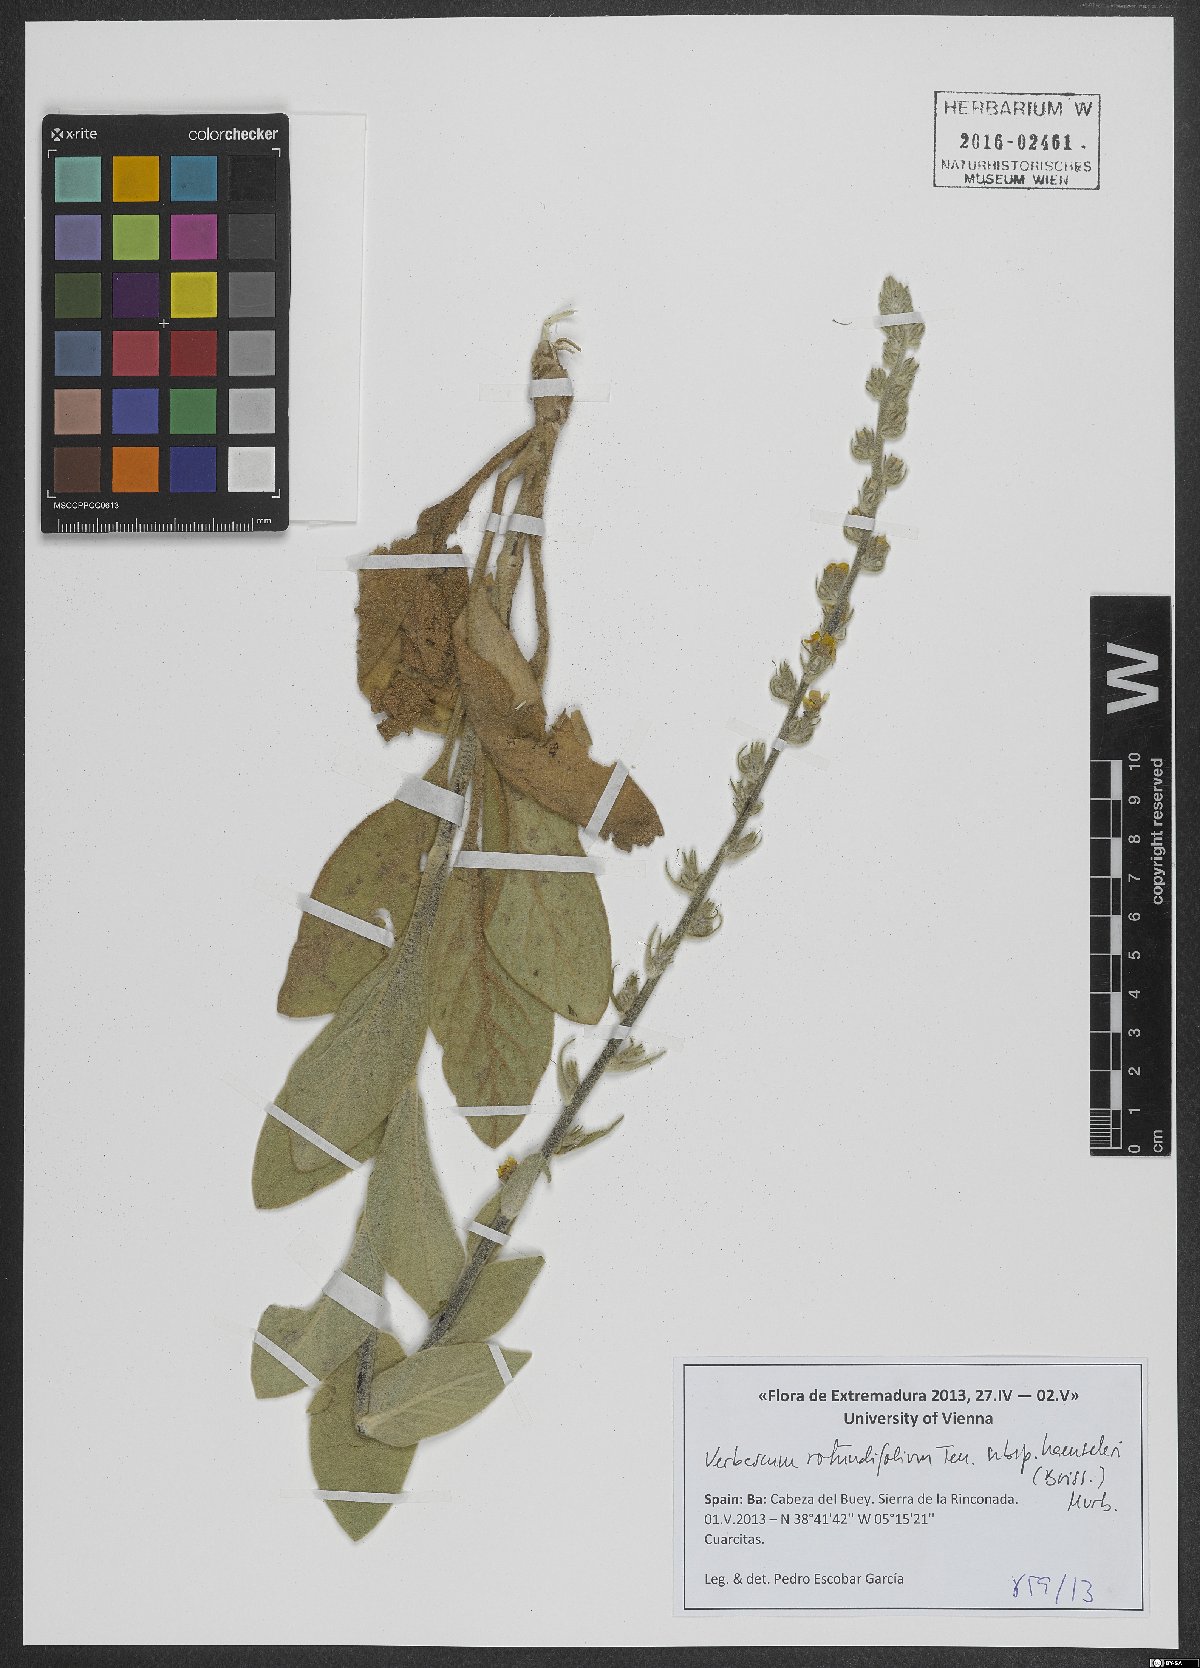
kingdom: Plantae
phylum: Tracheophyta
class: Magnoliopsida
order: Lamiales
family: Scrophulariaceae
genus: Verbascum
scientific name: Verbascum rotundifolium
